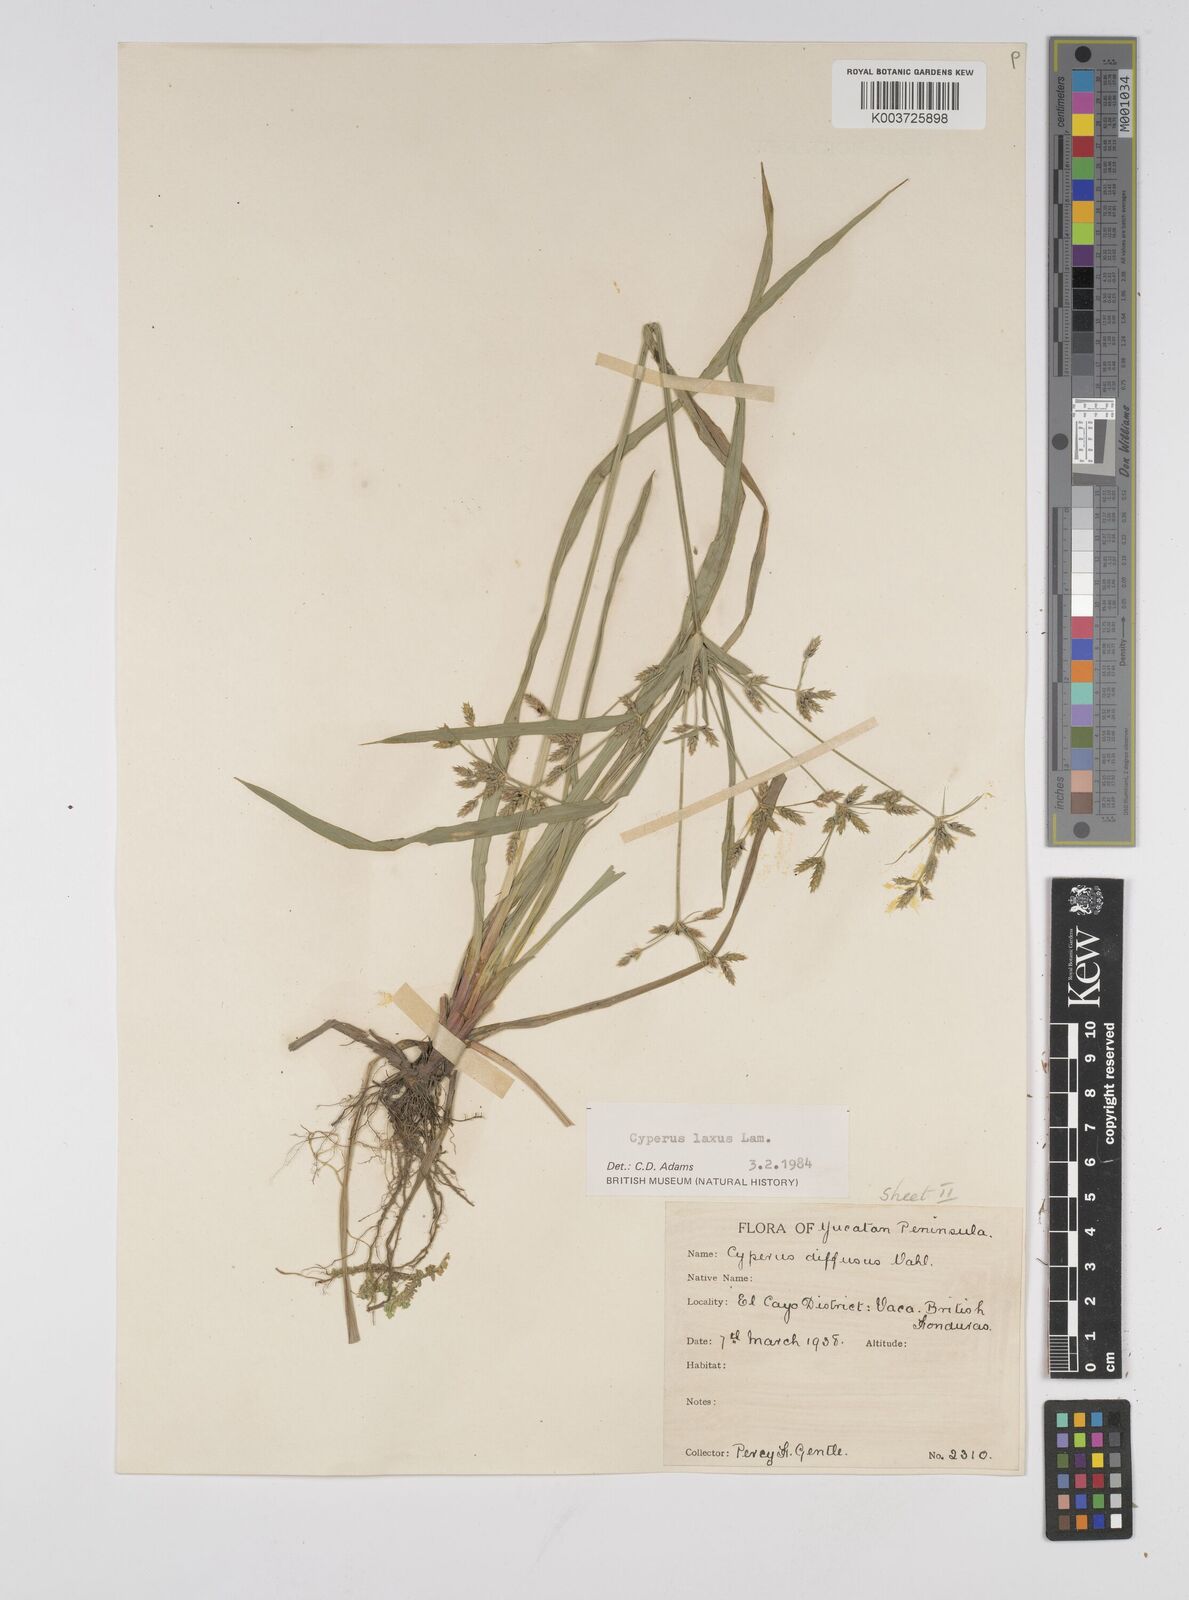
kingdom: Plantae
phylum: Tracheophyta
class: Liliopsida
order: Poales
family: Cyperaceae
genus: Cyperus
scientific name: Cyperus chalaranthus
